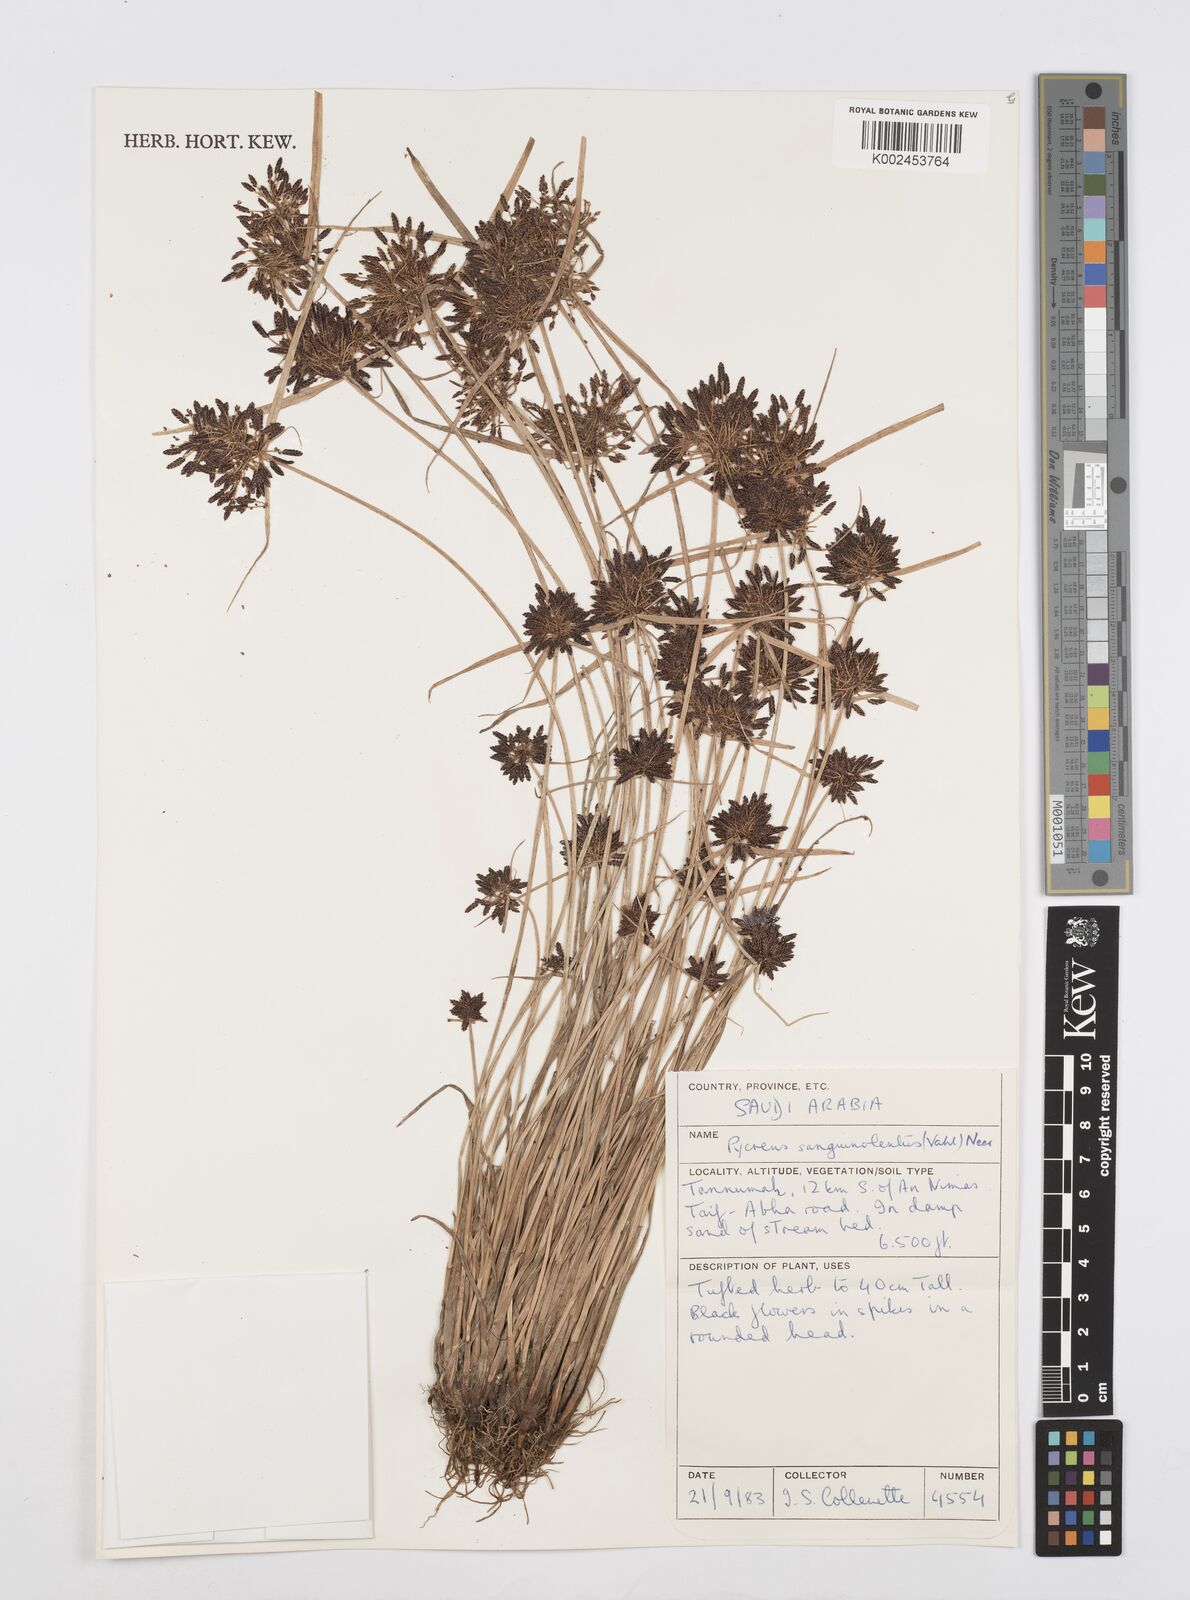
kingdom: Plantae
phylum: Tracheophyta
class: Liliopsida
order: Poales
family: Cyperaceae
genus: Cyperus
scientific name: Cyperus sanguinolentus
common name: Purpleglume flatsedge
